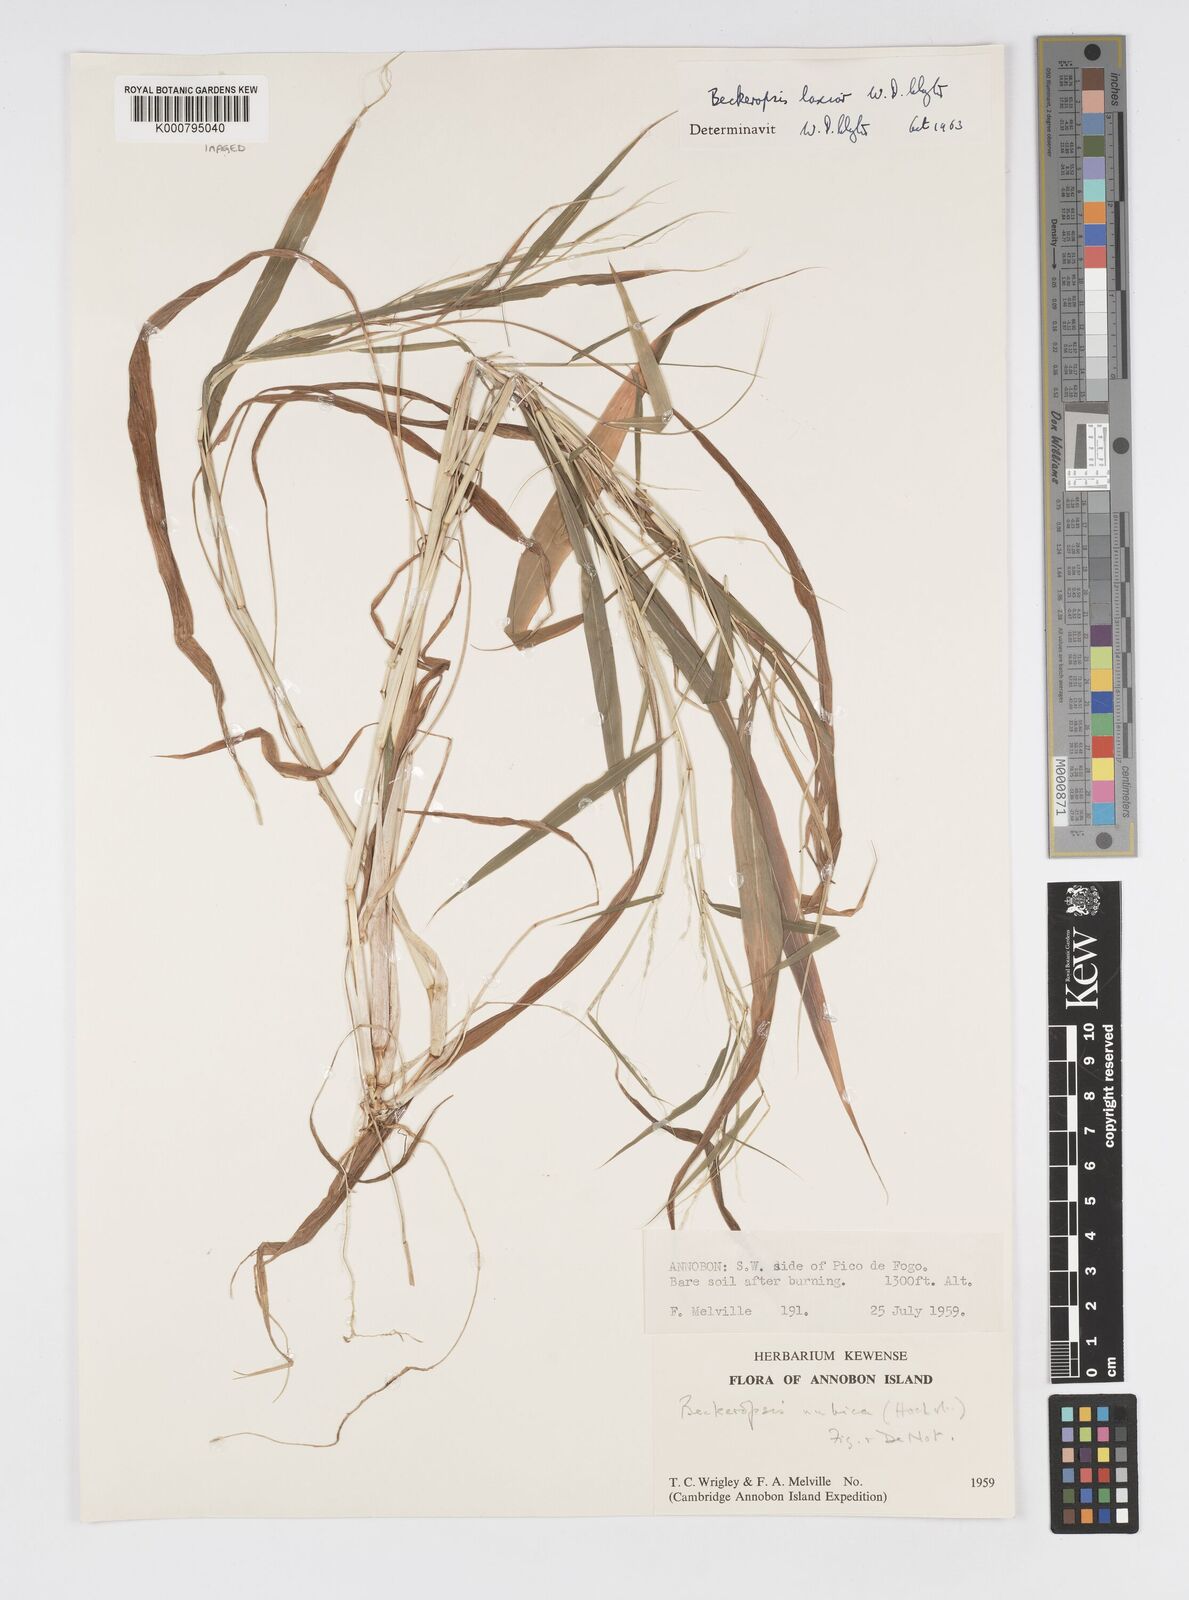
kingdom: Plantae
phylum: Tracheophyta
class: Liliopsida
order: Poales
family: Poaceae
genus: Cenchrus
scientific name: Cenchrus Pennisetum spec
